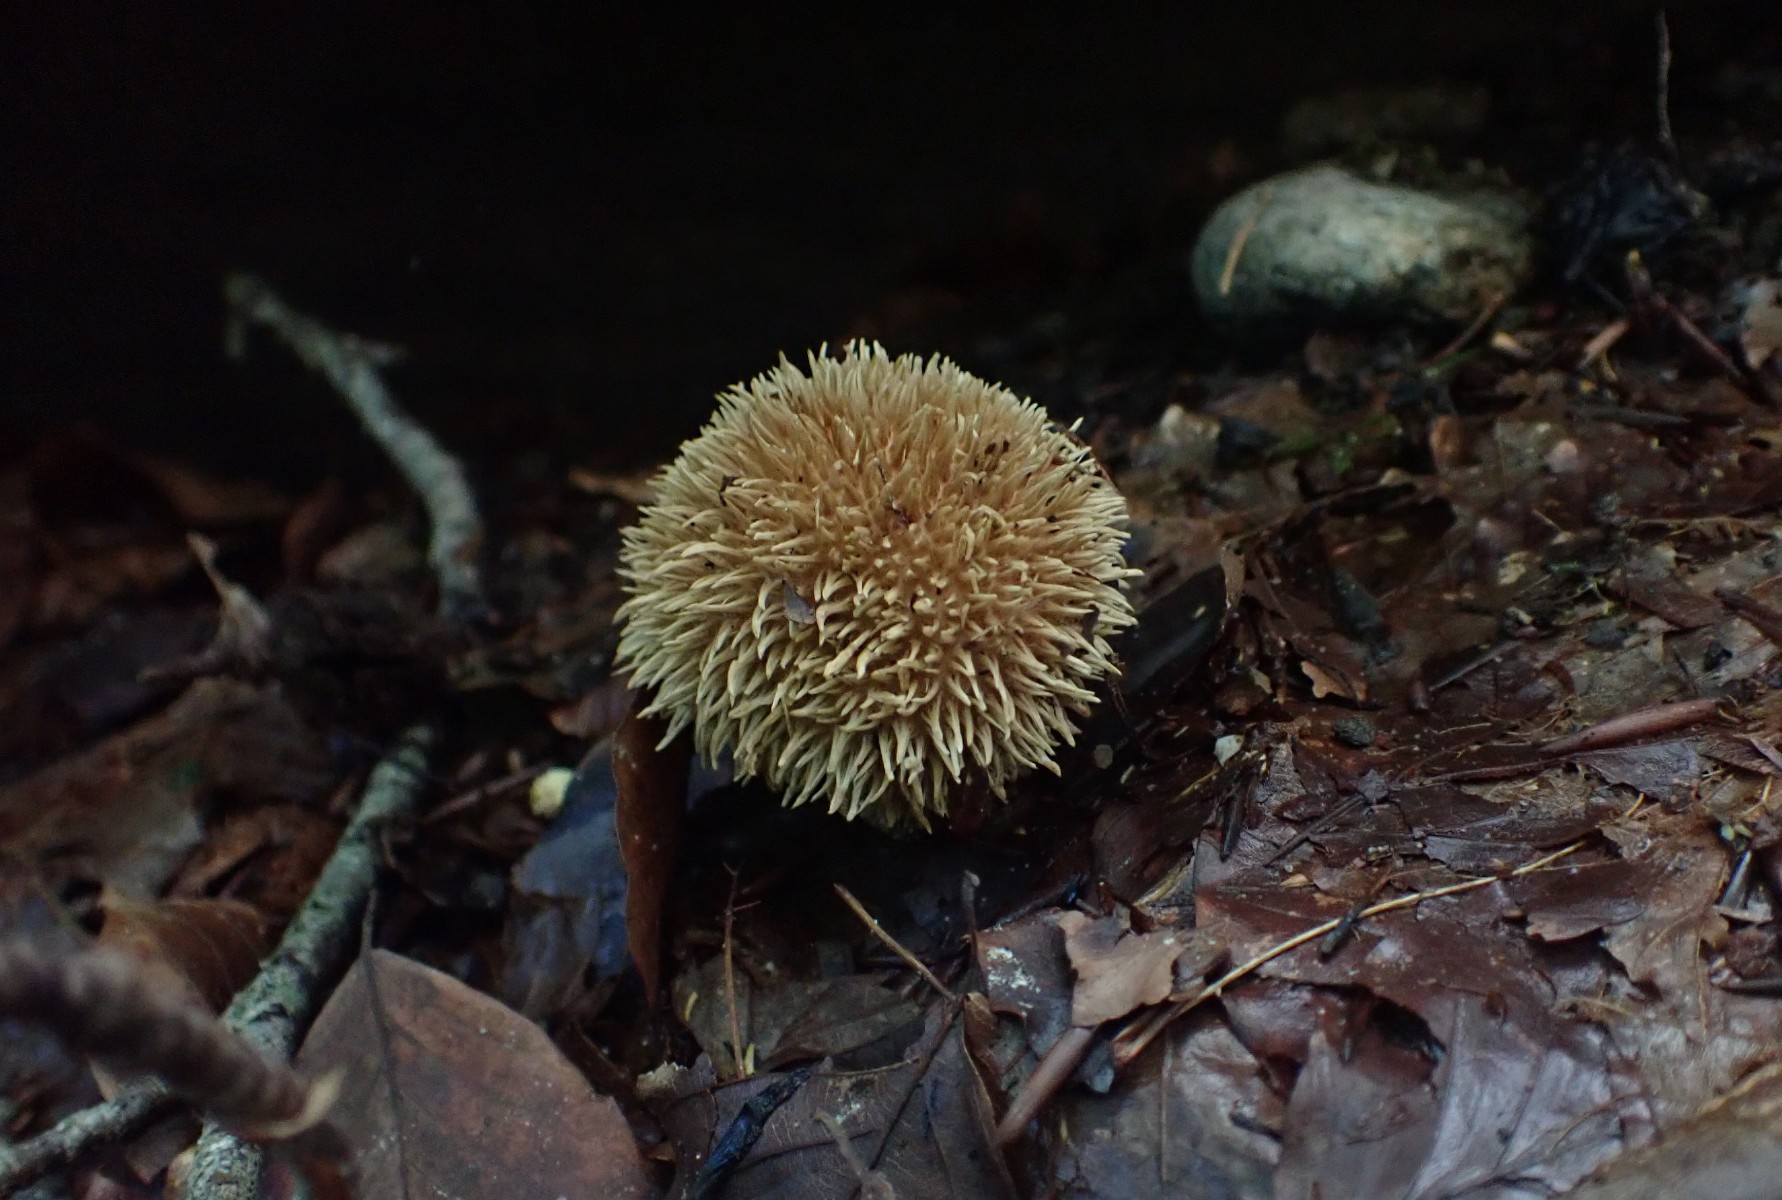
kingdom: Fungi
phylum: Basidiomycota
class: Agaricomycetes
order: Agaricales
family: Lycoperdaceae
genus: Lycoperdon
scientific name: Lycoperdon echinatum
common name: pindsvine-støvbold
